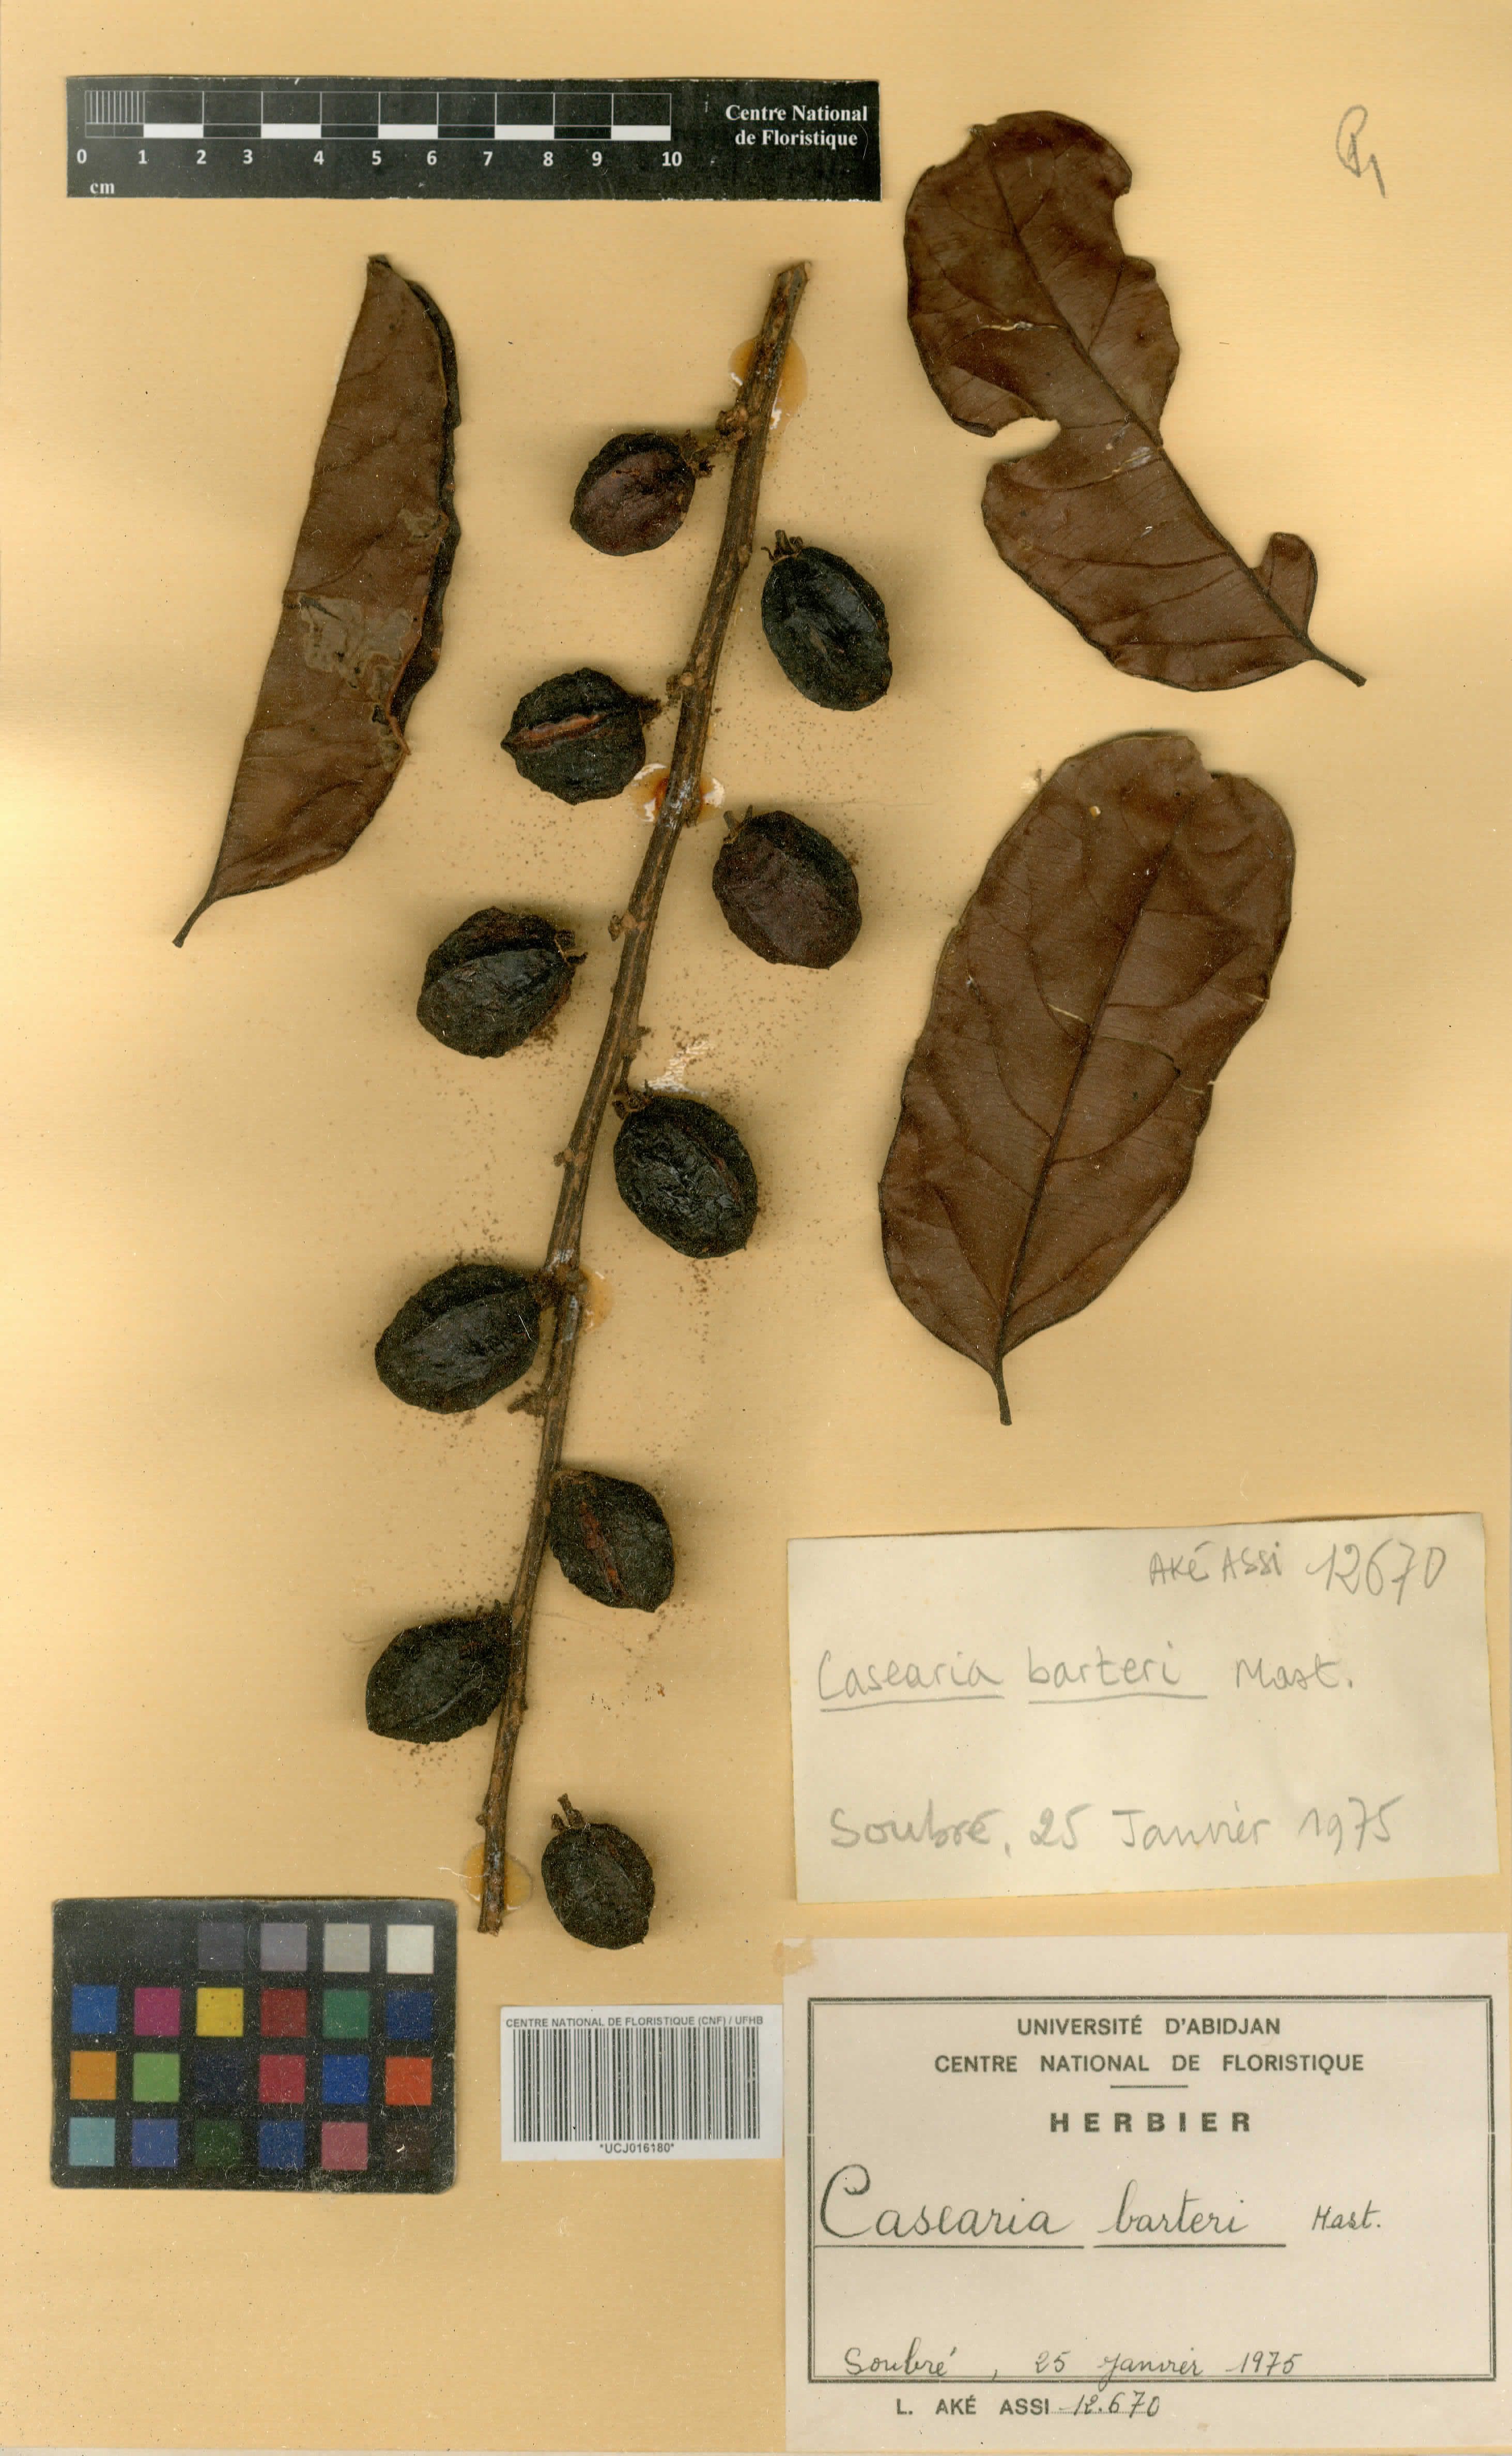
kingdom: Plantae
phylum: Tracheophyta
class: Magnoliopsida
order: Malpighiales
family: Salicaceae
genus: Casearia
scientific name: Casearia barteri
